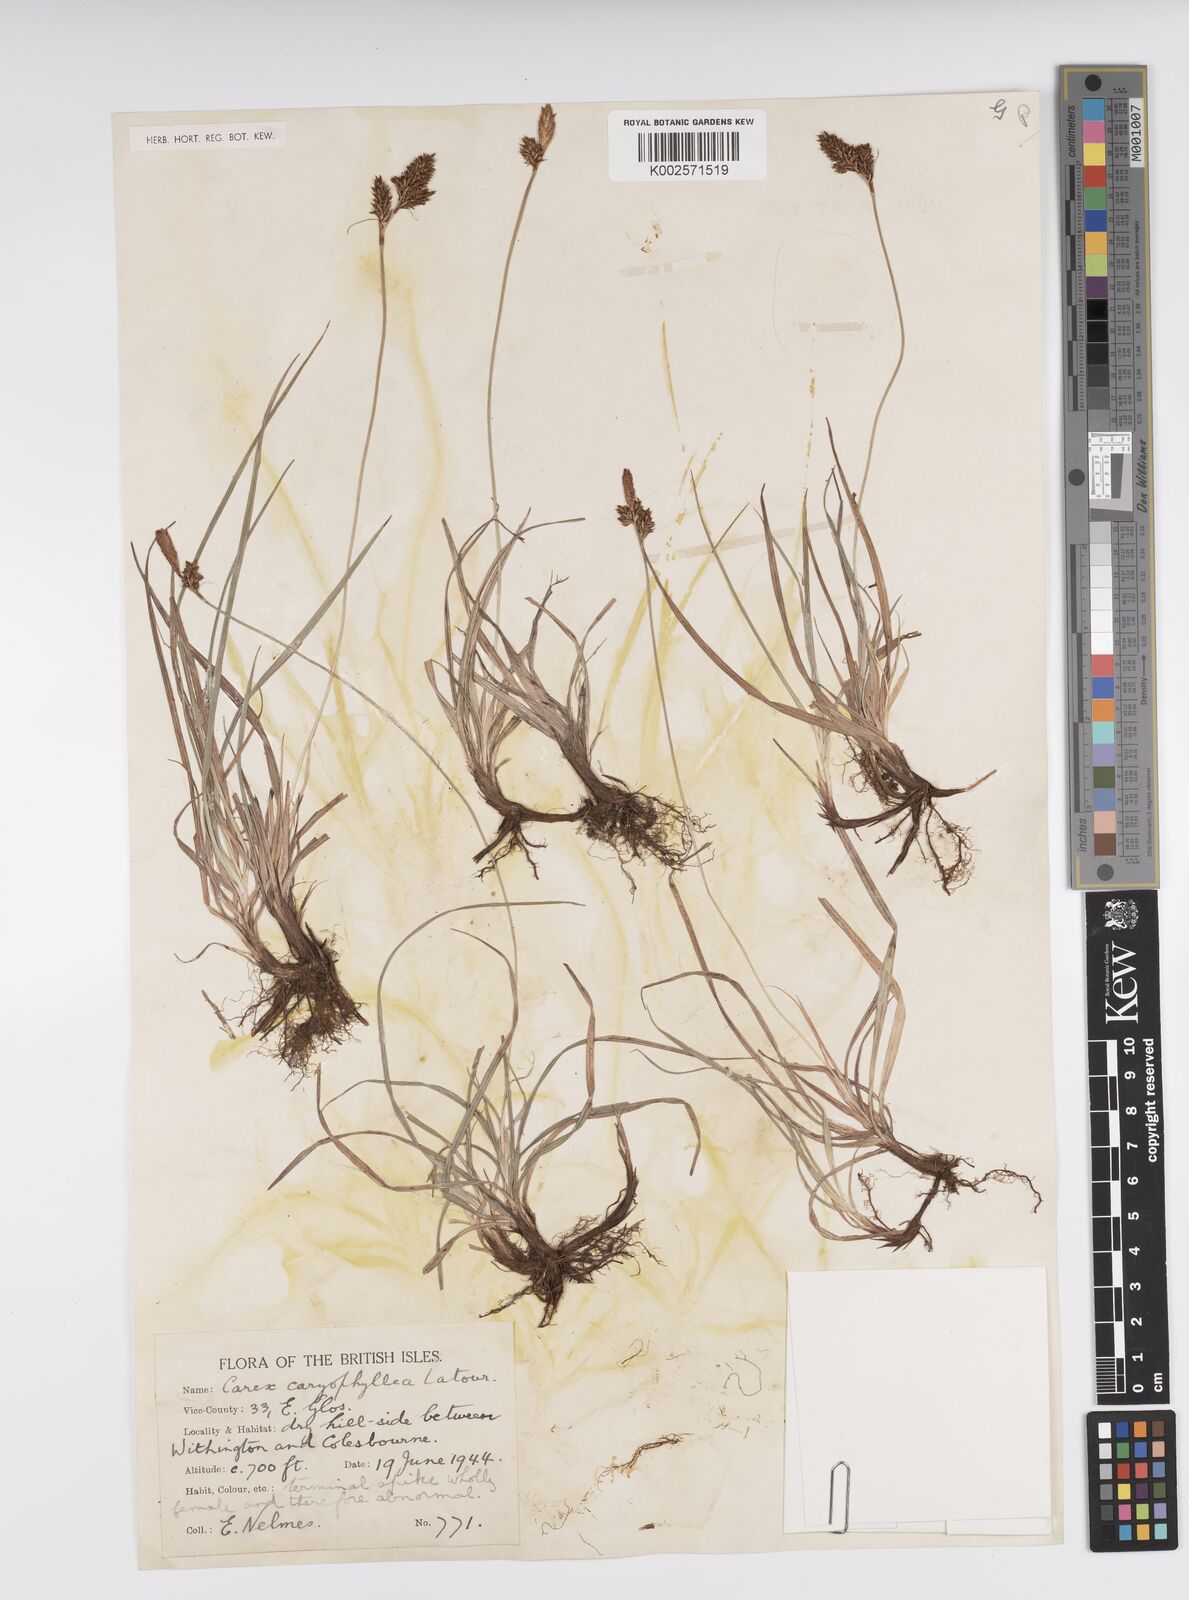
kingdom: Plantae
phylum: Tracheophyta
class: Liliopsida
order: Poales
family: Cyperaceae
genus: Carex
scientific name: Carex caryophyllea
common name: Spring sedge
